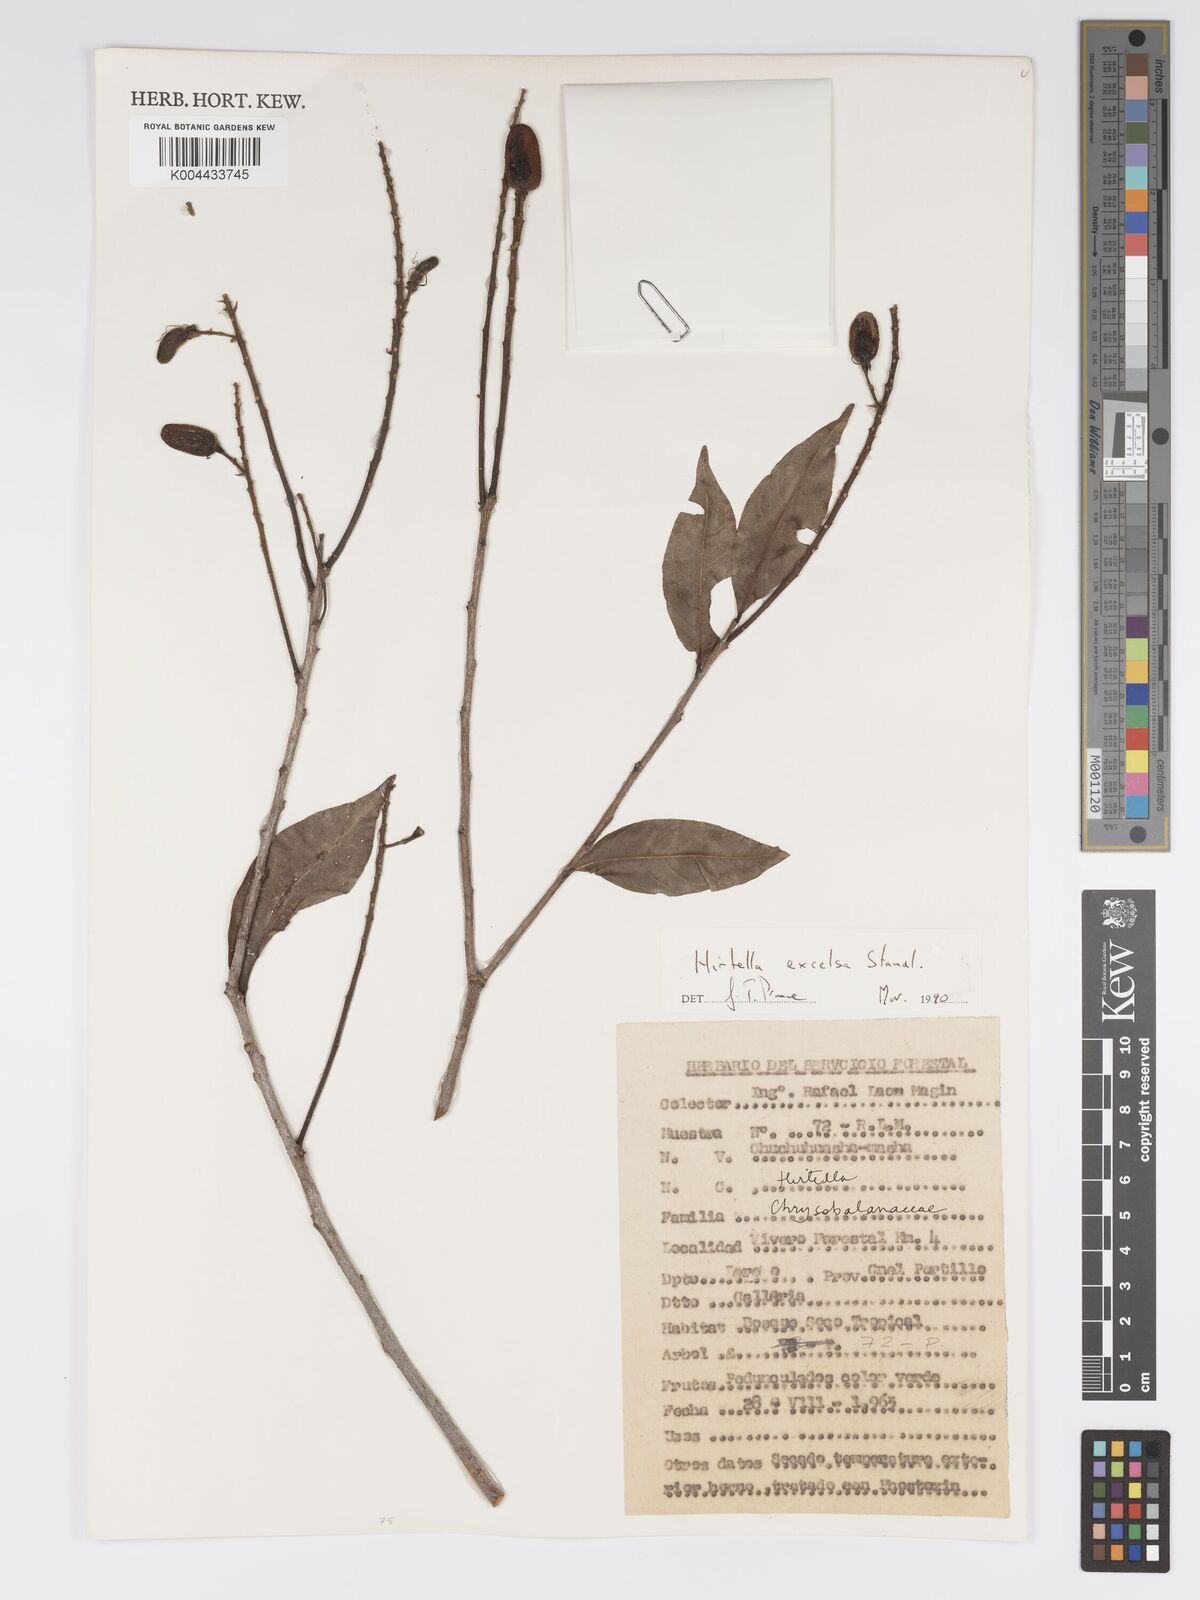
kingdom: Plantae
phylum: Tracheophyta
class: Magnoliopsida
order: Malpighiales
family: Chrysobalanaceae
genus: Hirtella
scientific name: Hirtella excelsa
